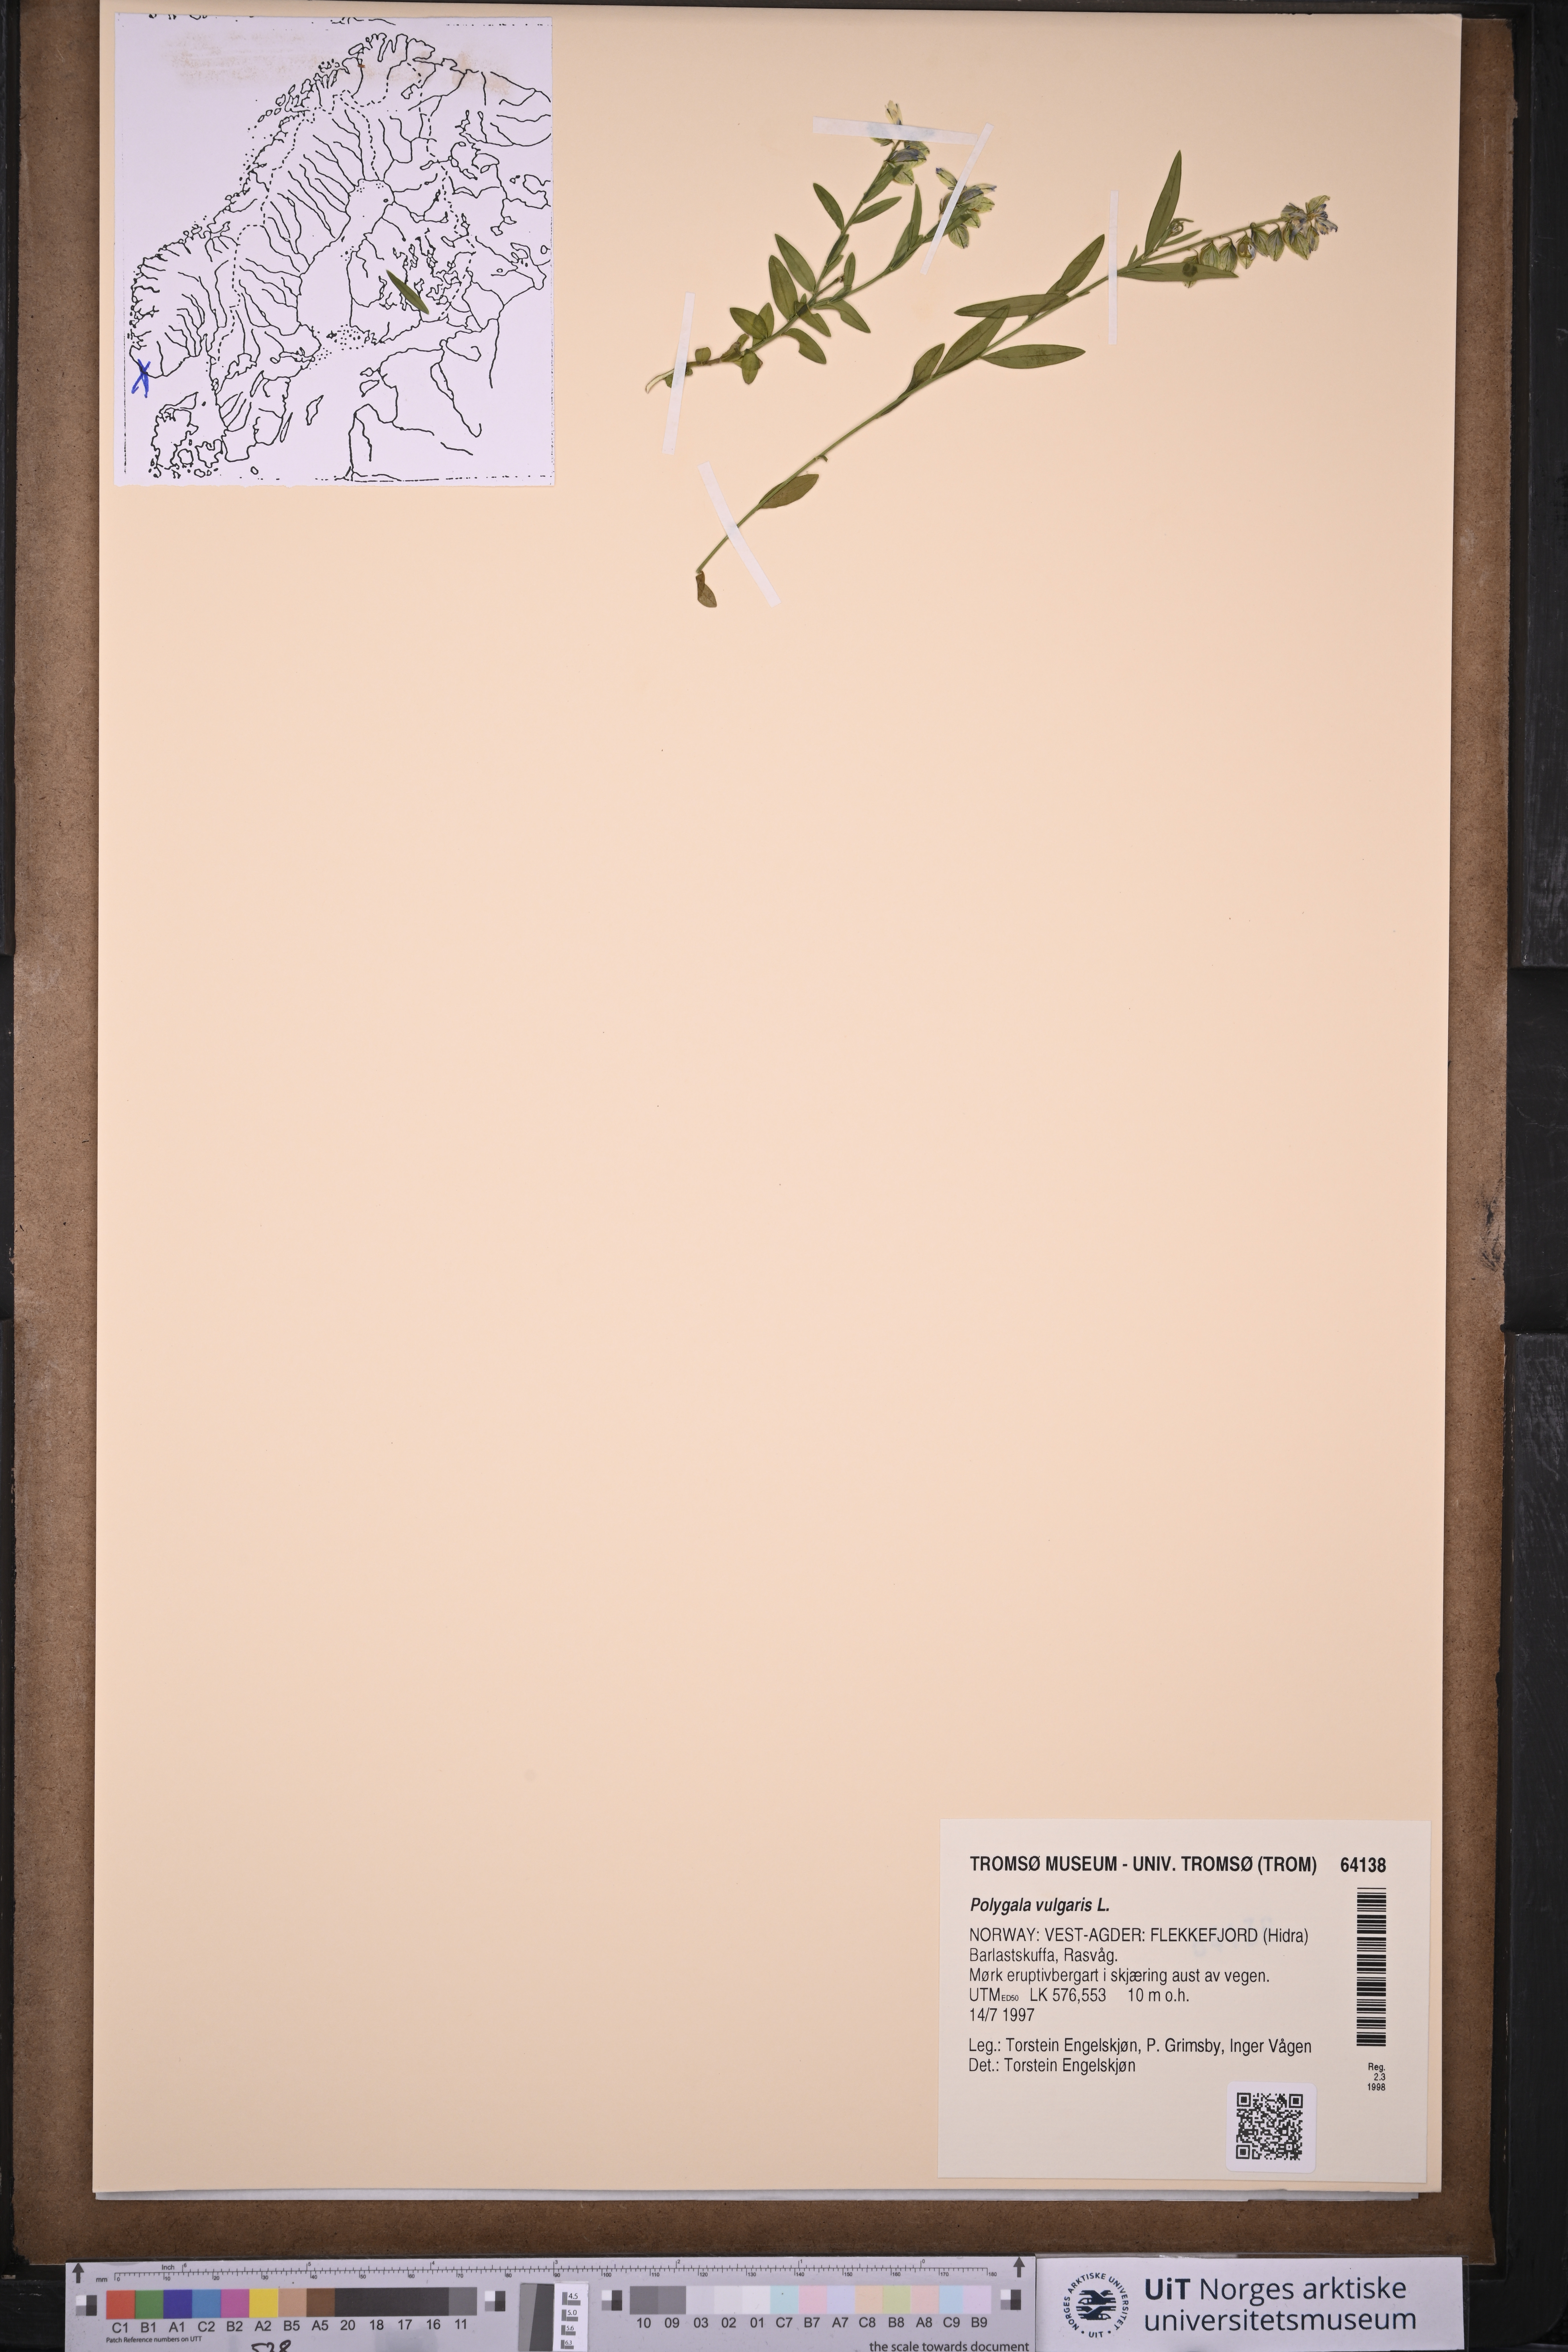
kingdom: Plantae
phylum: Tracheophyta
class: Magnoliopsida
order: Fabales
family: Polygalaceae
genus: Polygala
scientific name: Polygala vulgaris
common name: Common milkwort
